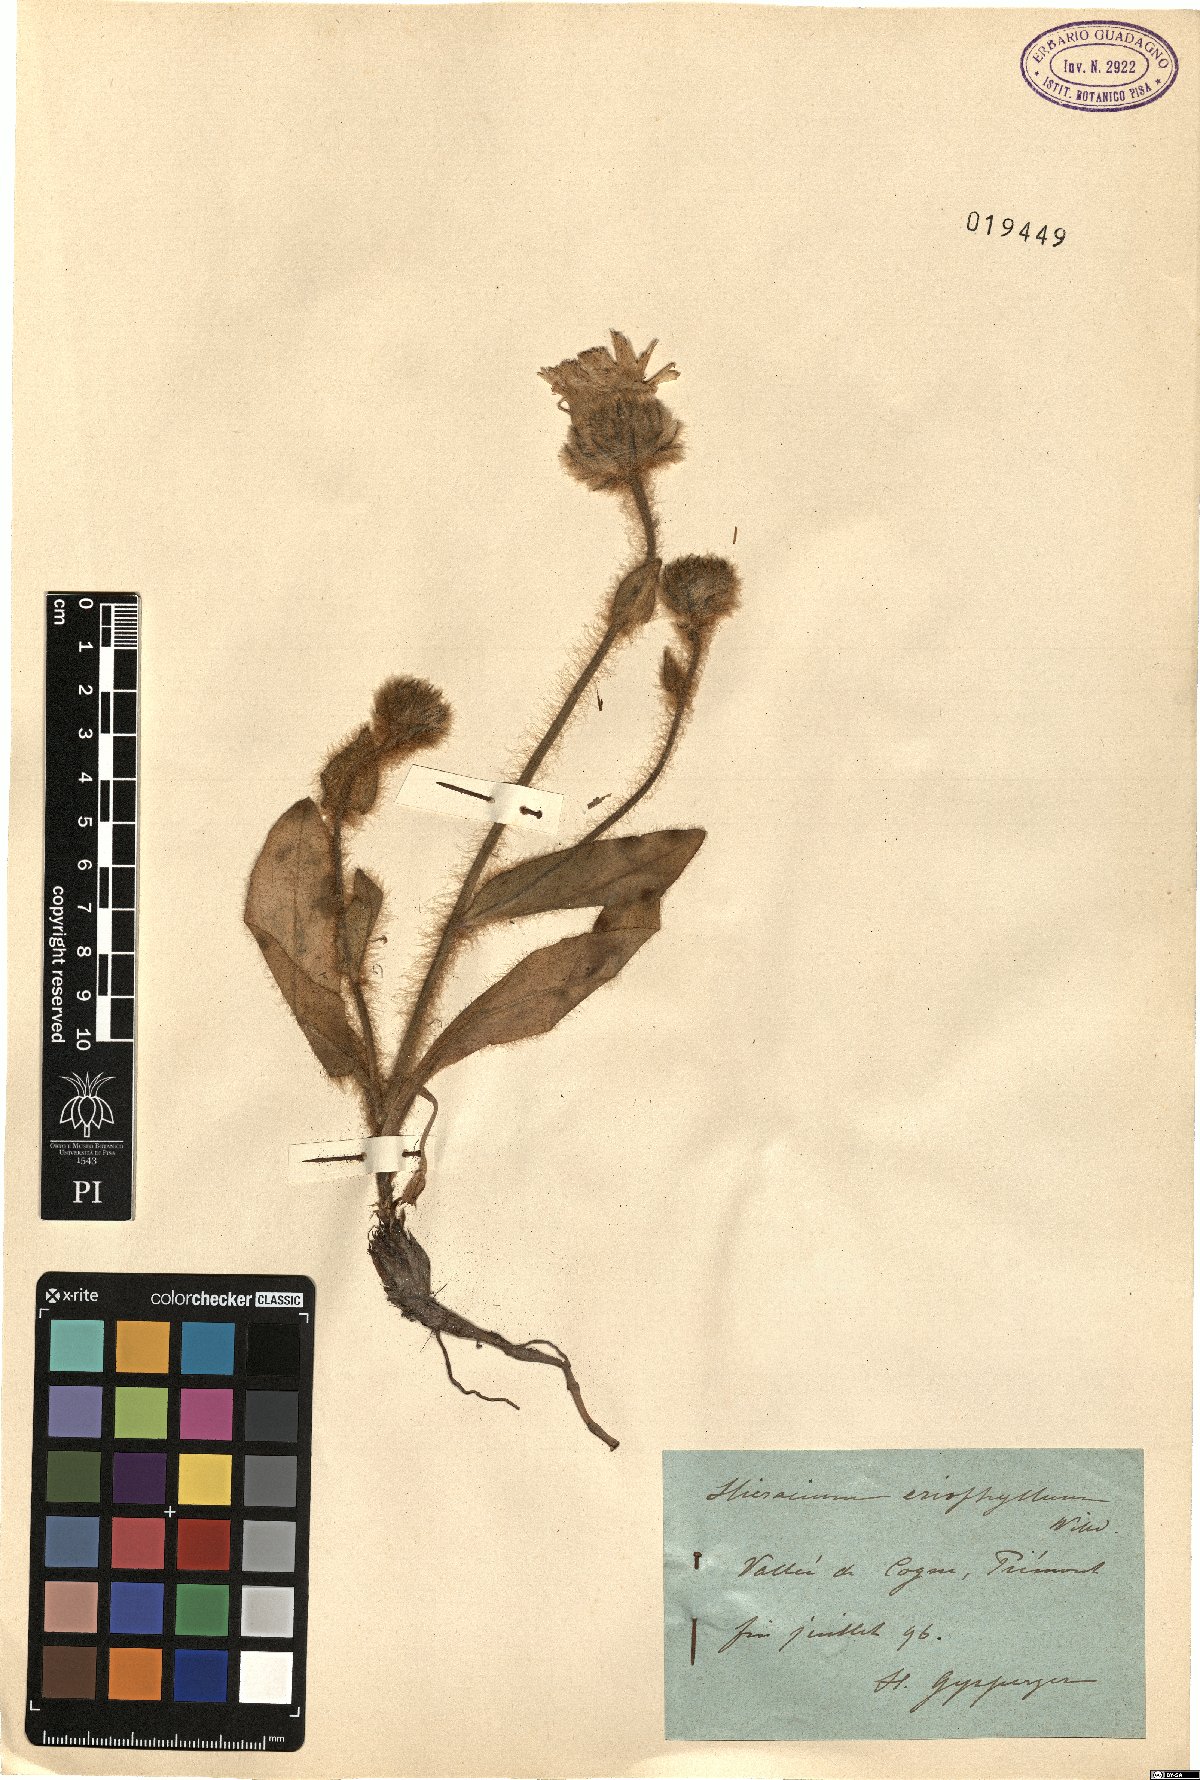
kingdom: Plantae
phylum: Tracheophyta
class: Magnoliopsida
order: Asterales
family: Asteraceae
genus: Hieracium
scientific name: Hieracium villosum
